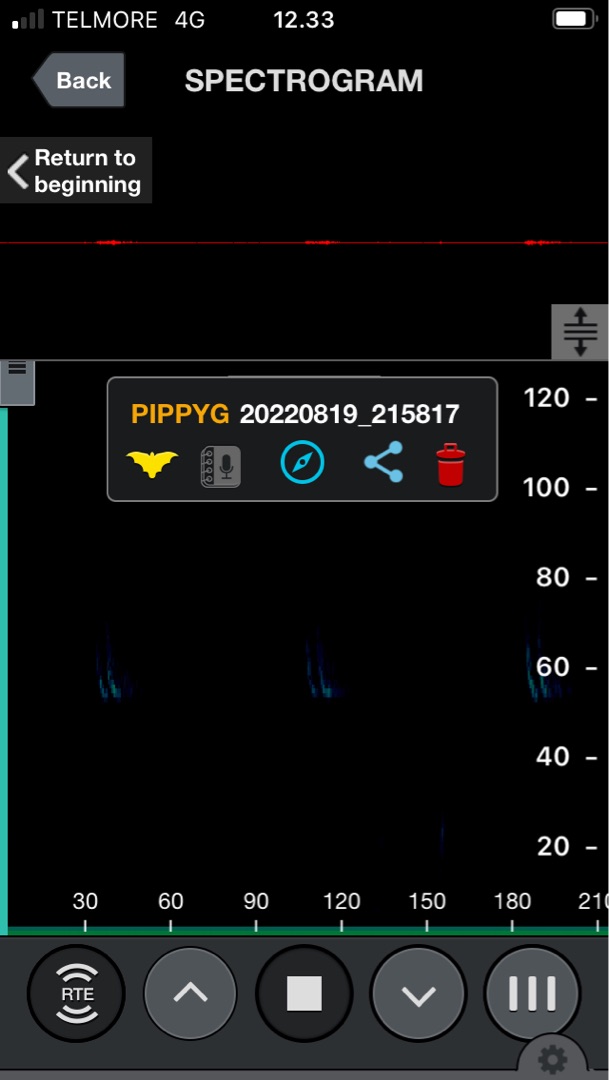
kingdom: Animalia
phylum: Chordata
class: Mammalia
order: Chiroptera
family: Vespertilionidae
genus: Pipistrellus
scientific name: Pipistrellus pygmaeus
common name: Dværgflagermus
